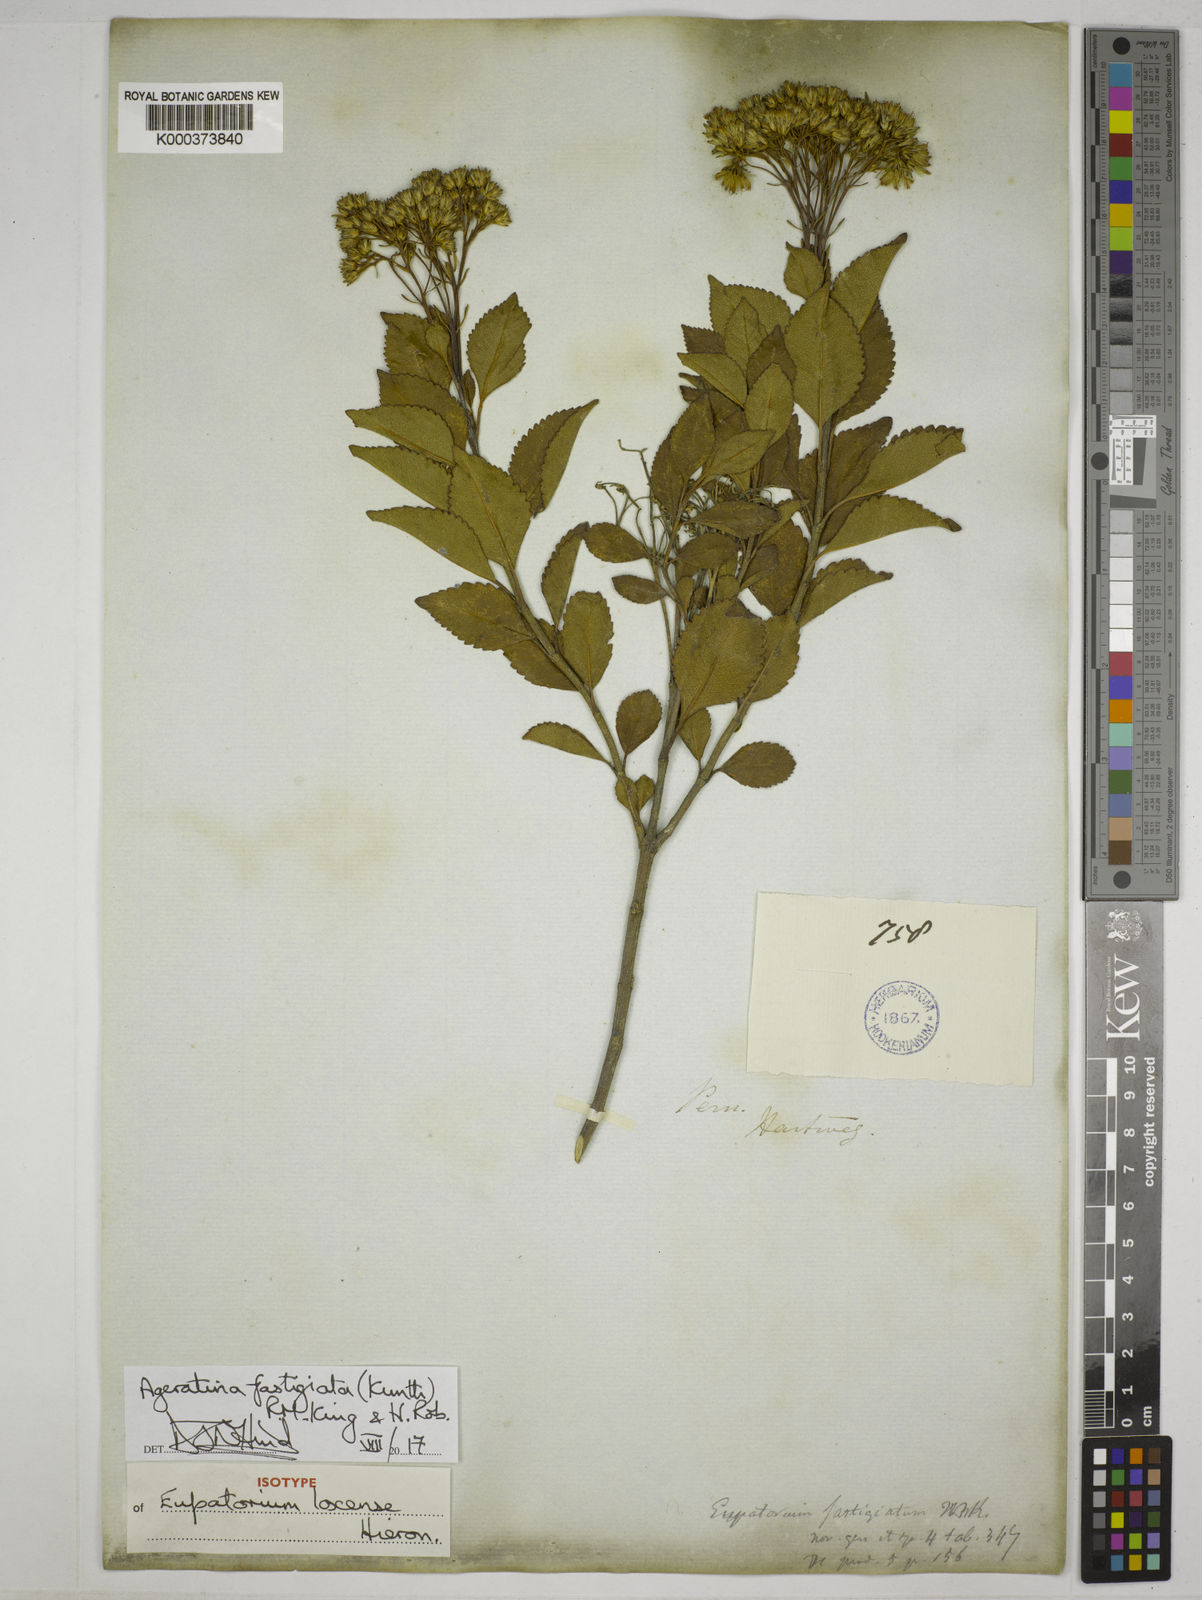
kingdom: Plantae
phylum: Tracheophyta
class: Magnoliopsida
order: Asterales
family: Asteraceae
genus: Ageratina
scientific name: Ageratina fastigiata
